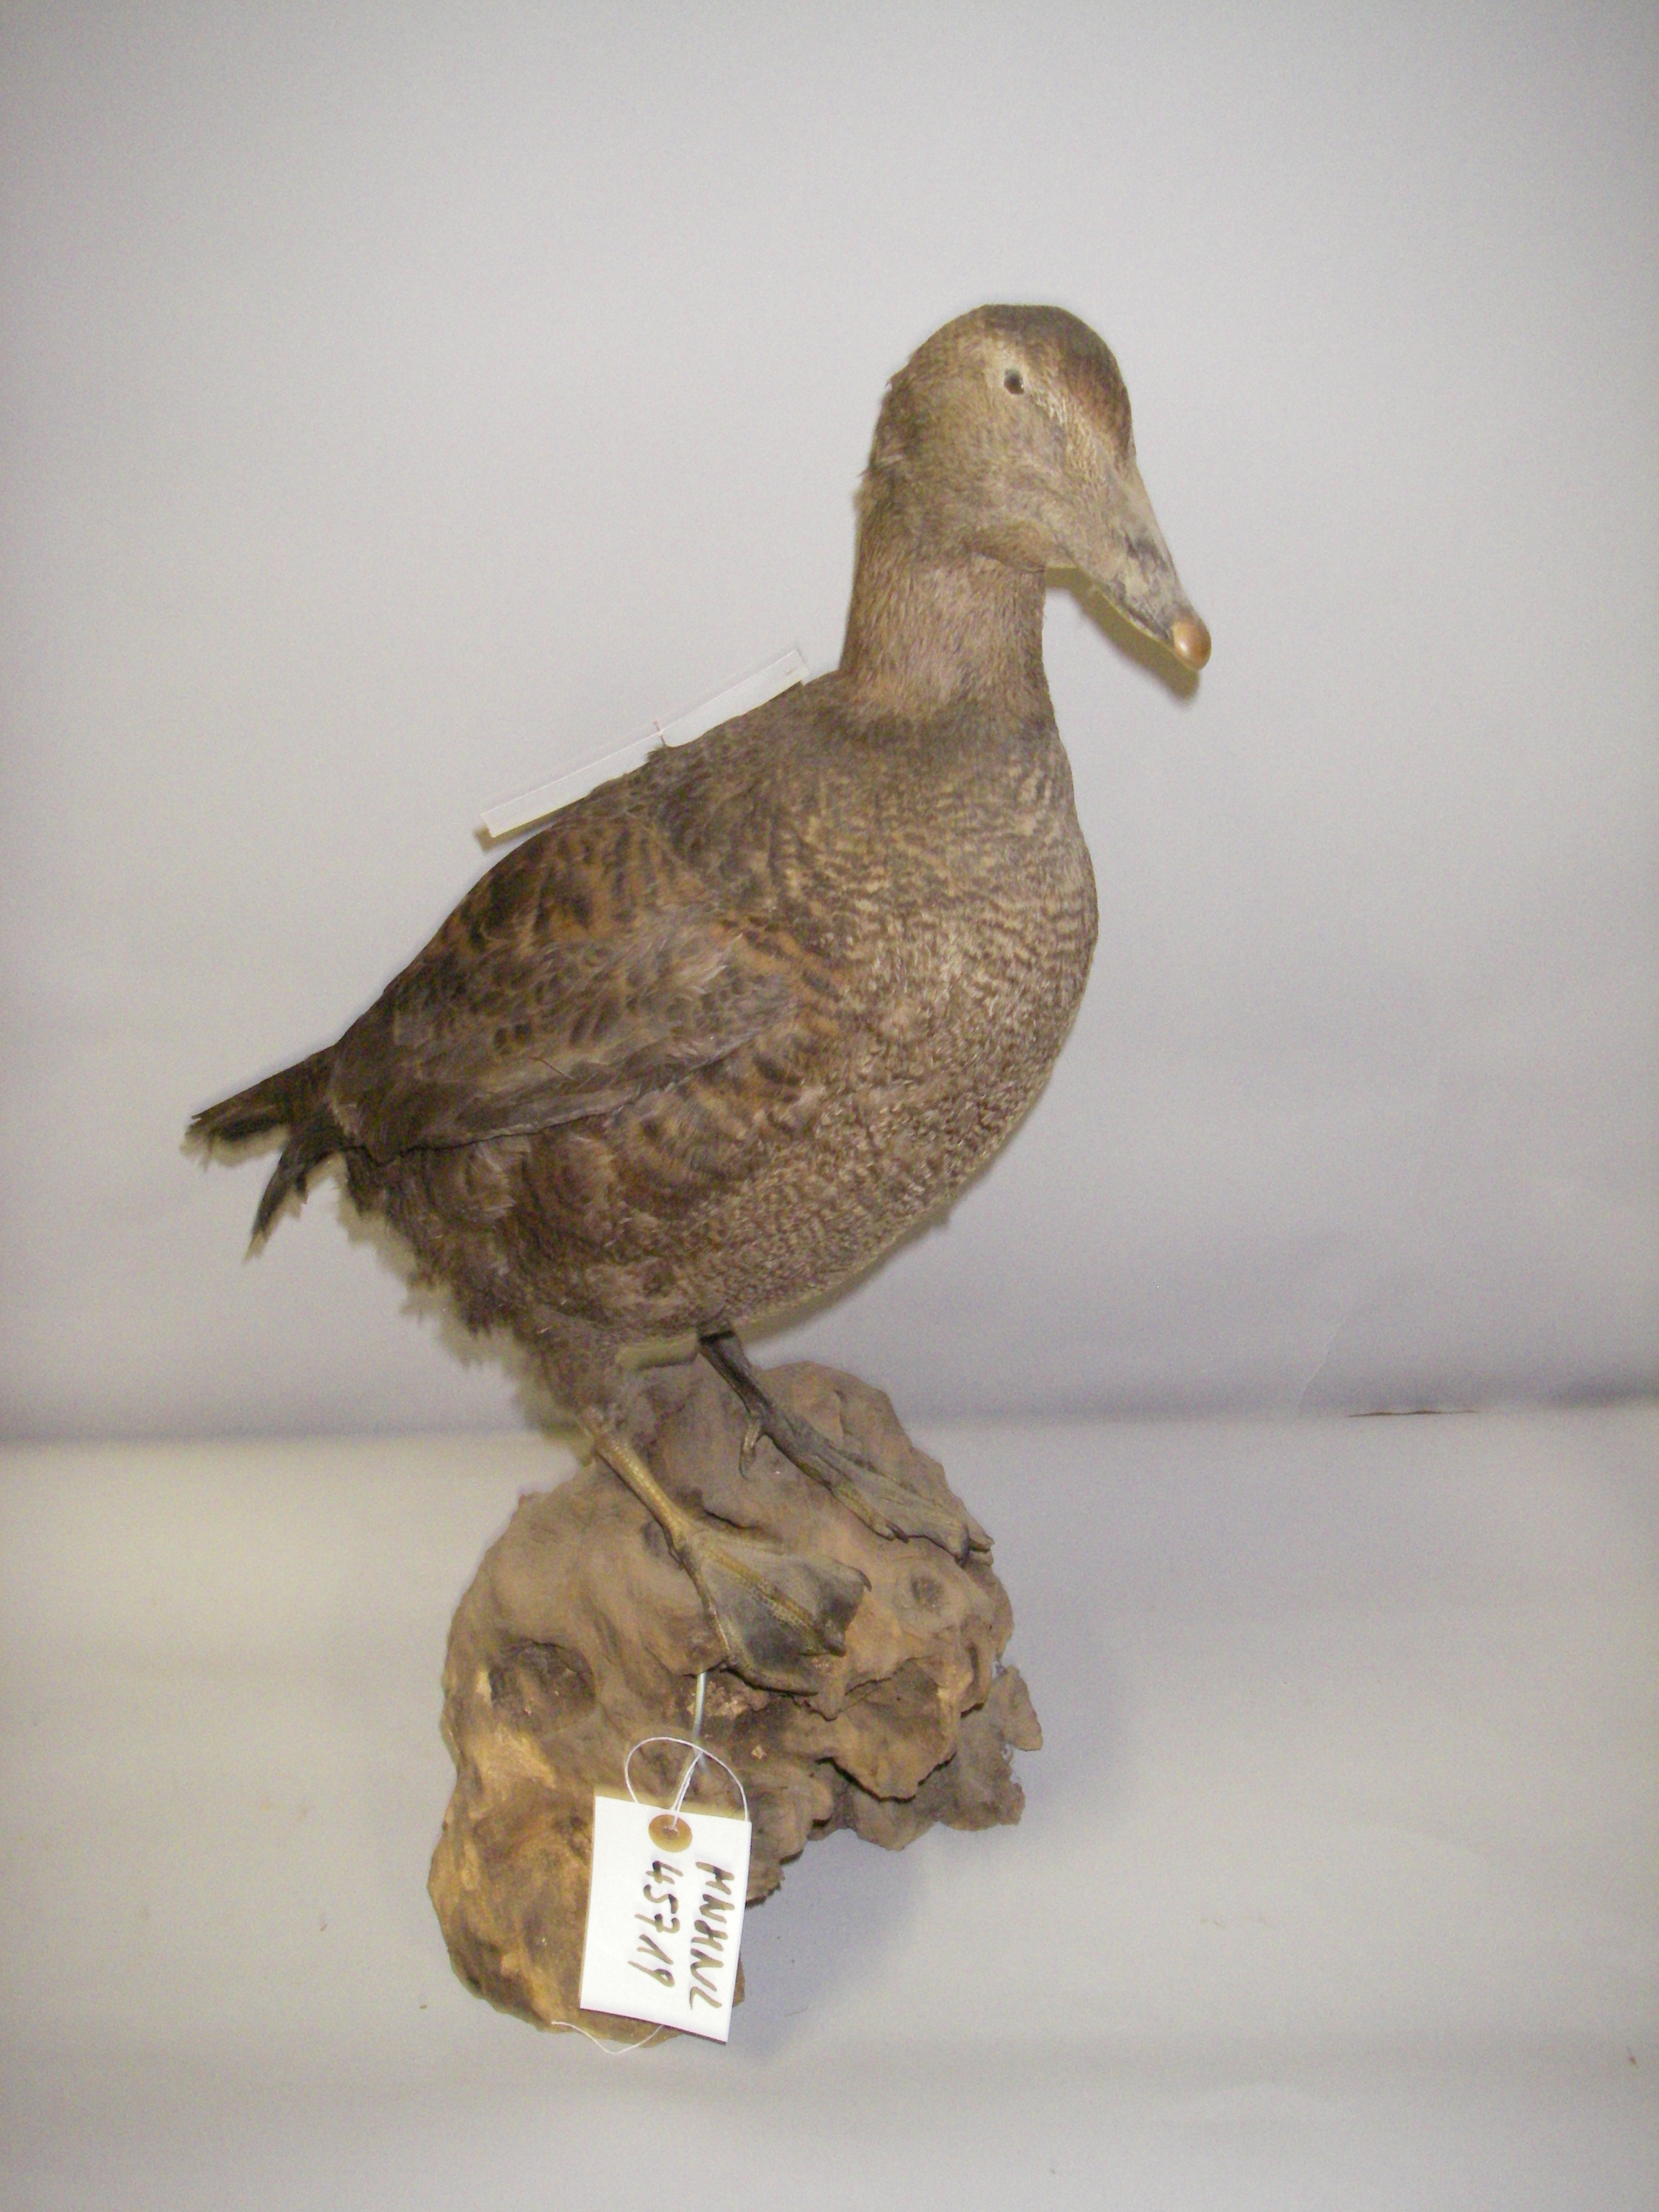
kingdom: Animalia
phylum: Chordata
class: Aves
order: Anseriformes
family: Anatidae
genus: Somateria
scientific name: Somateria spectabilis
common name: King eider
